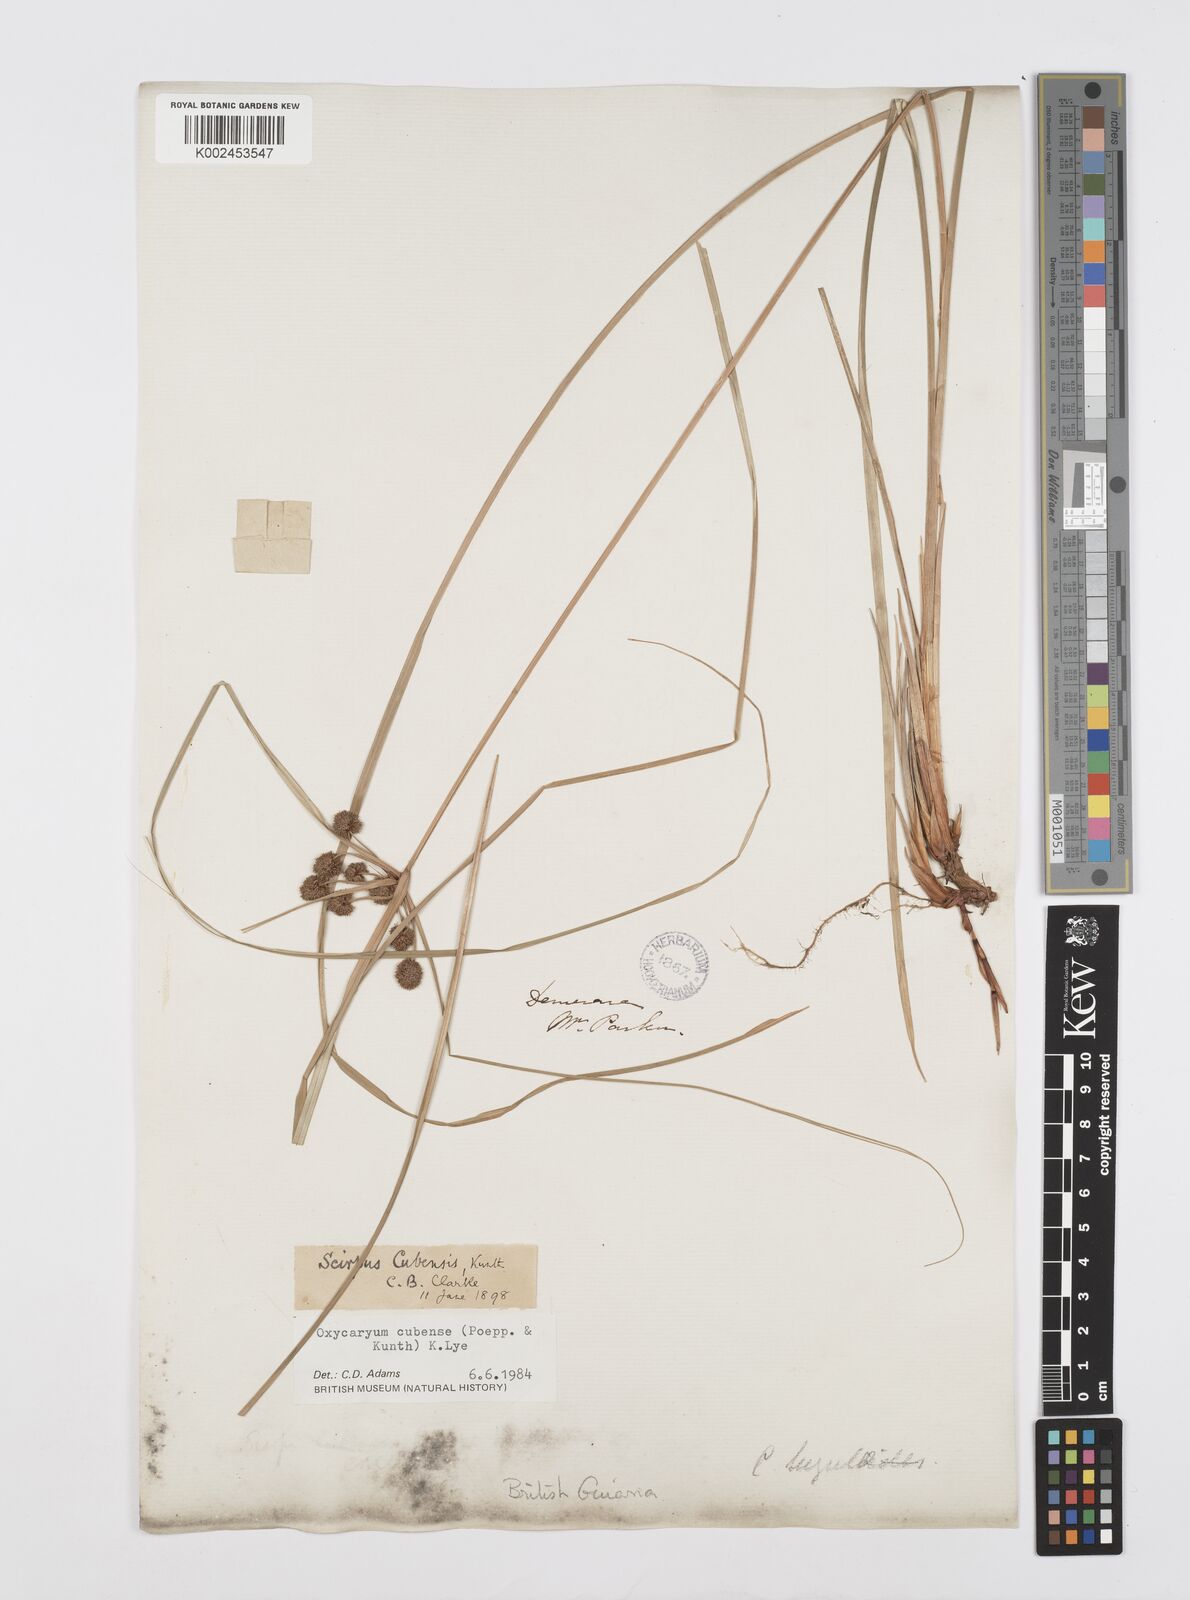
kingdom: Plantae
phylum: Tracheophyta
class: Liliopsida
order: Poales
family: Cyperaceae
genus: Cyperus
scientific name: Cyperus elegans
